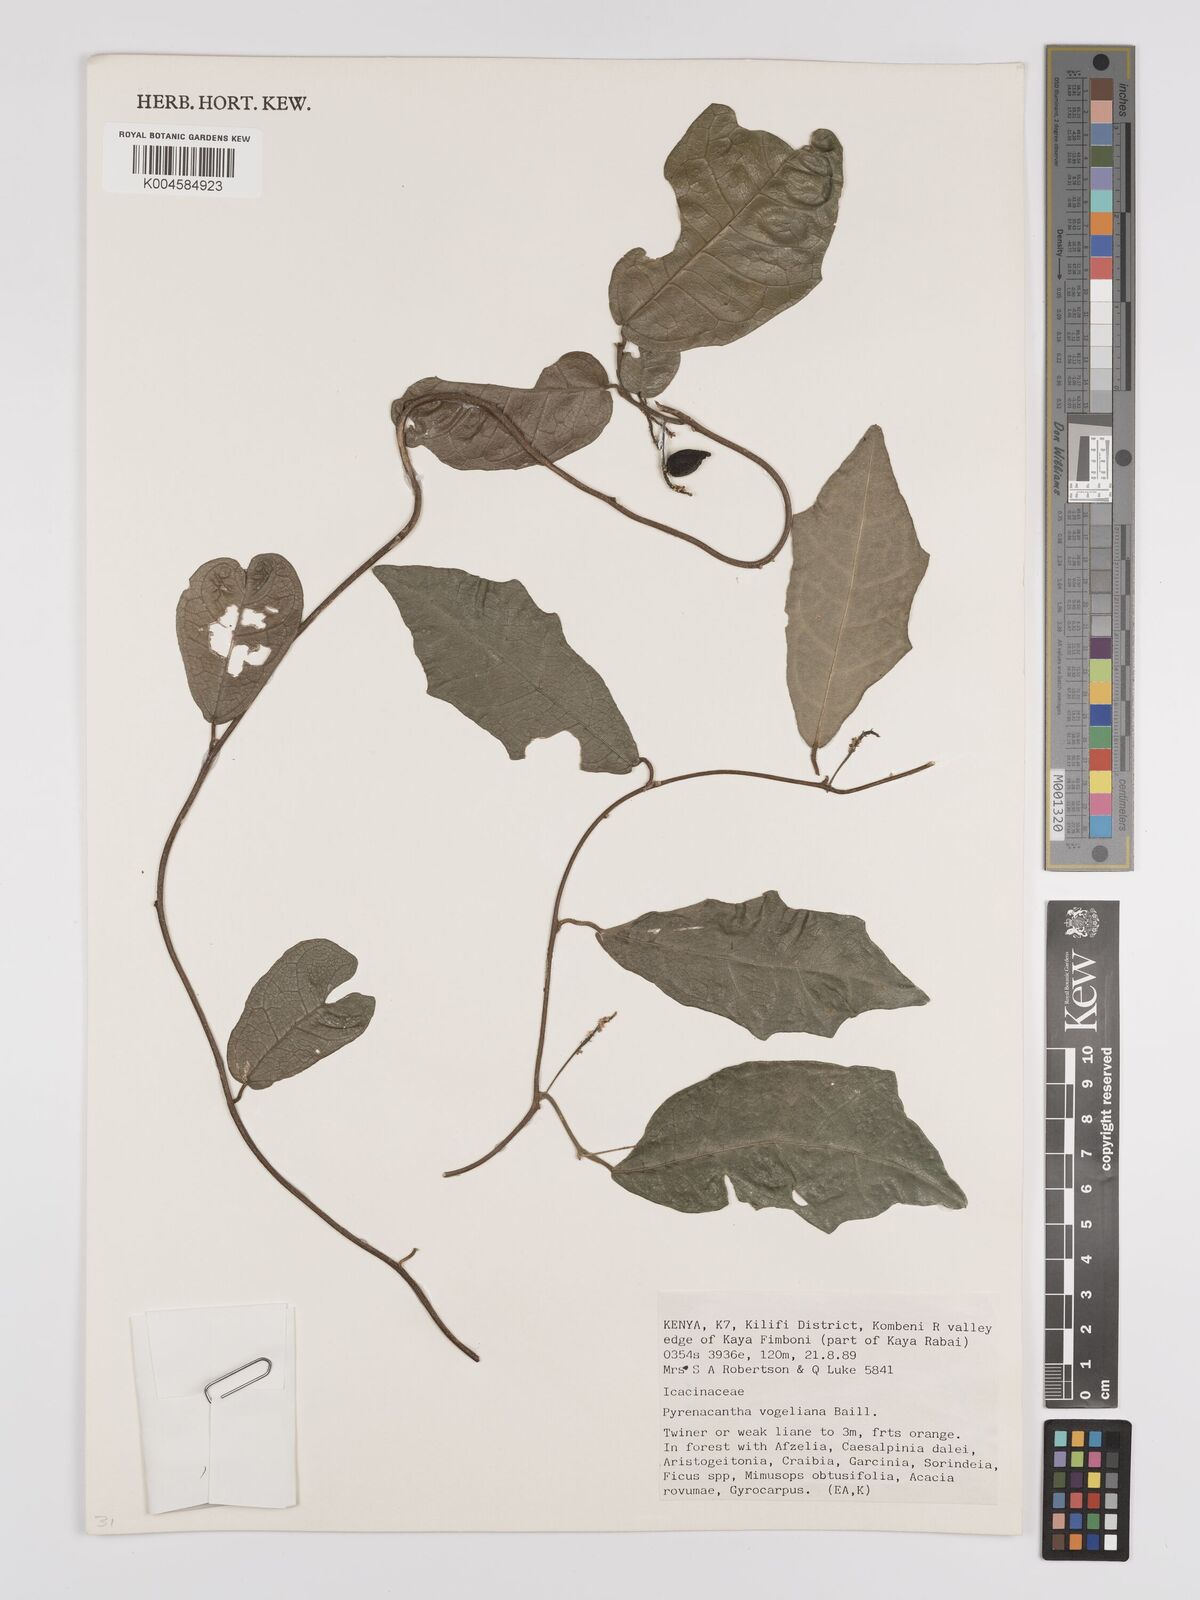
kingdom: Plantae
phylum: Tracheophyta
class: Magnoliopsida
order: Icacinales
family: Icacinaceae
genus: Pyrenacantha
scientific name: Pyrenacantha vogeliana
